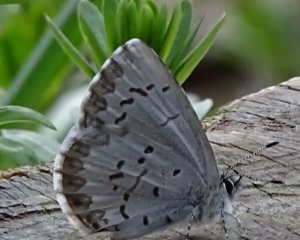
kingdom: Animalia
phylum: Arthropoda
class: Insecta
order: Lepidoptera
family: Lycaenidae
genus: Celastrina
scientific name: Celastrina lucia
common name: Northern Spring Azure
